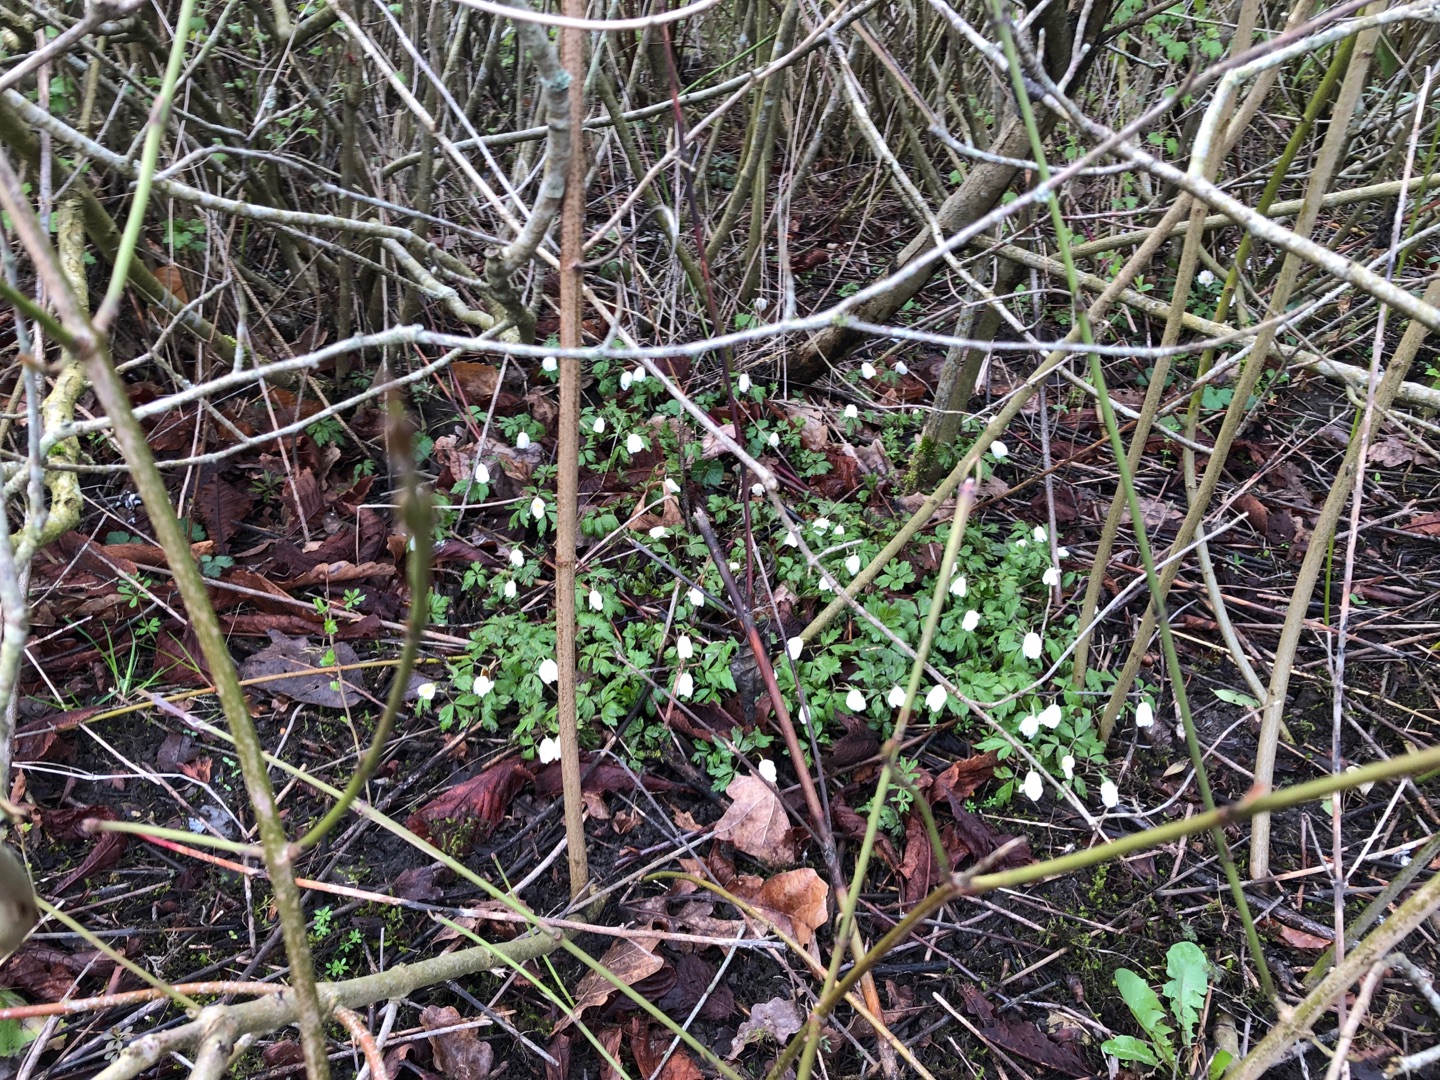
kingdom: Plantae
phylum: Tracheophyta
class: Magnoliopsida
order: Ranunculales
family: Ranunculaceae
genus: Anemone
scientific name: Anemone nemorosa
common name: Hvid anemone
